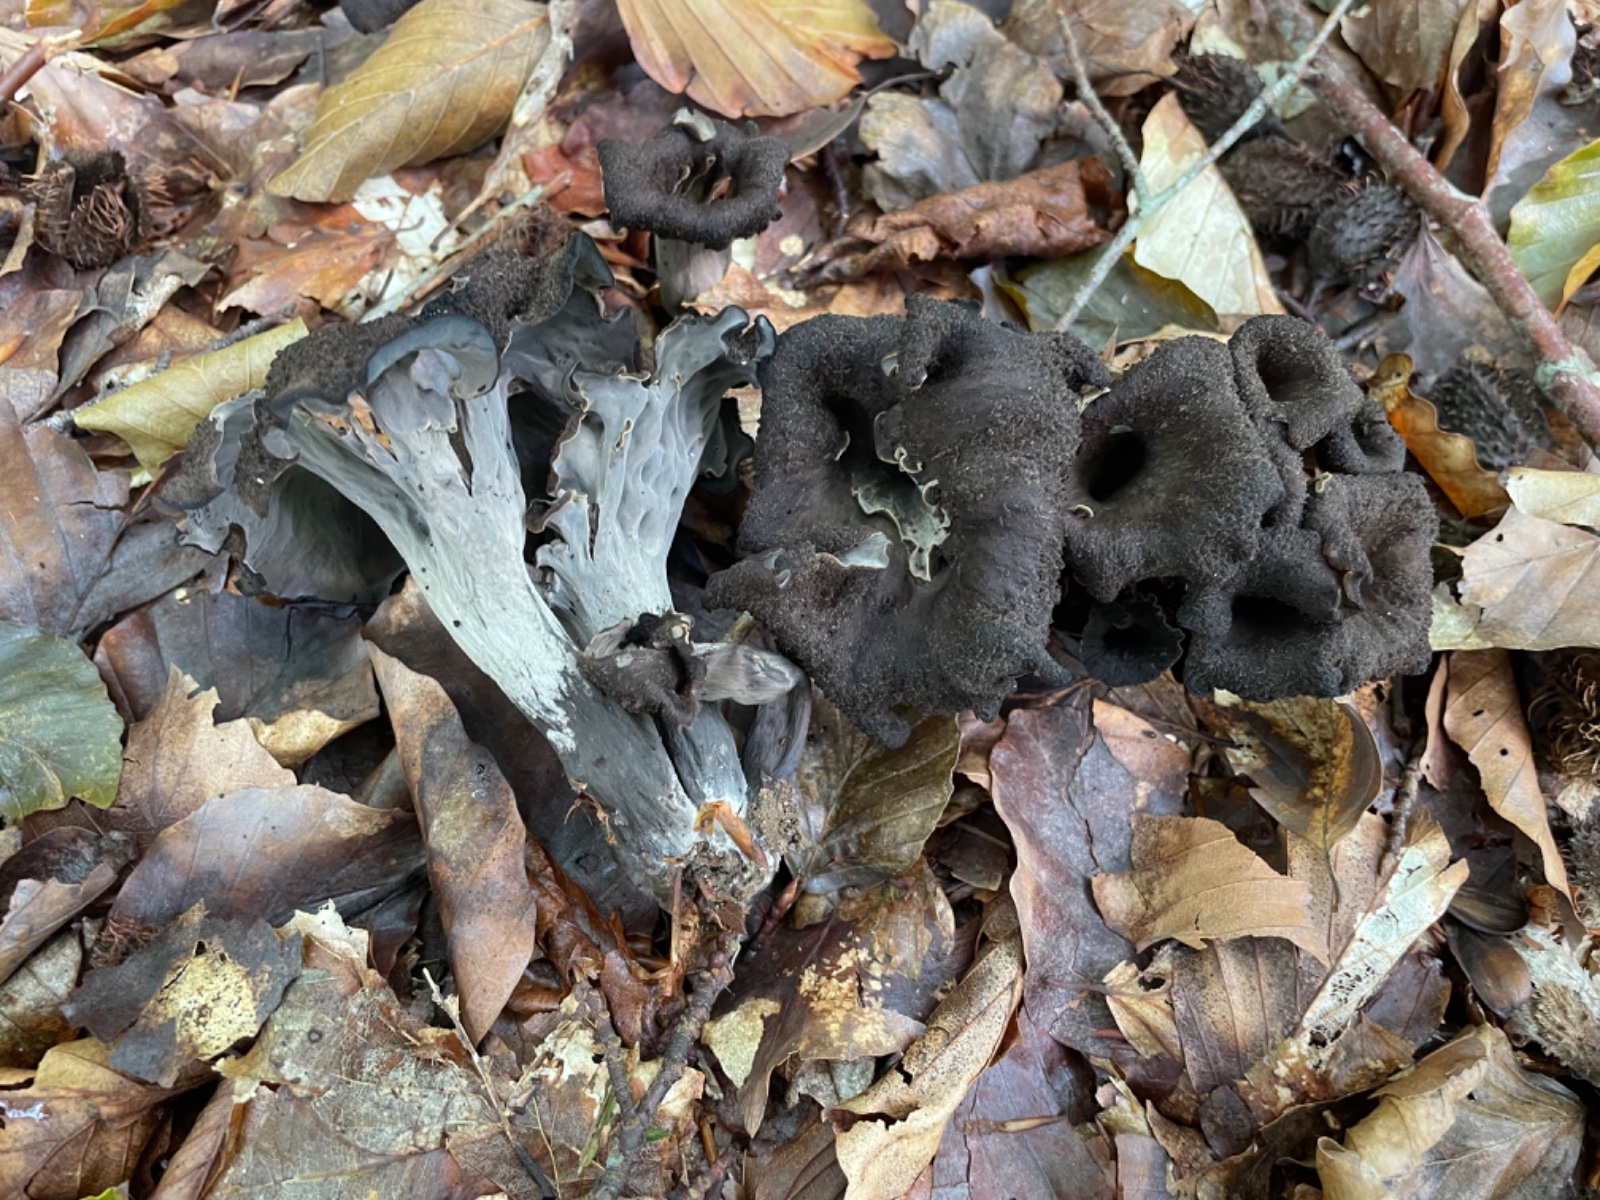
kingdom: Fungi
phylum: Basidiomycota
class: Agaricomycetes
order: Cantharellales
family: Hydnaceae
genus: Craterellus
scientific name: Craterellus cornucopioides
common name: trompetsvamp
